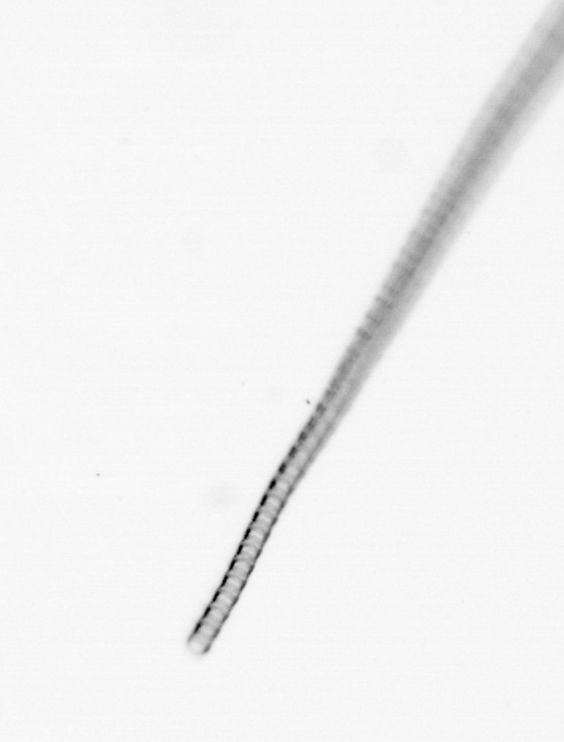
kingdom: Chromista
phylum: Ochrophyta
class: Bacillariophyceae
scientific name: Bacillariophyceae
